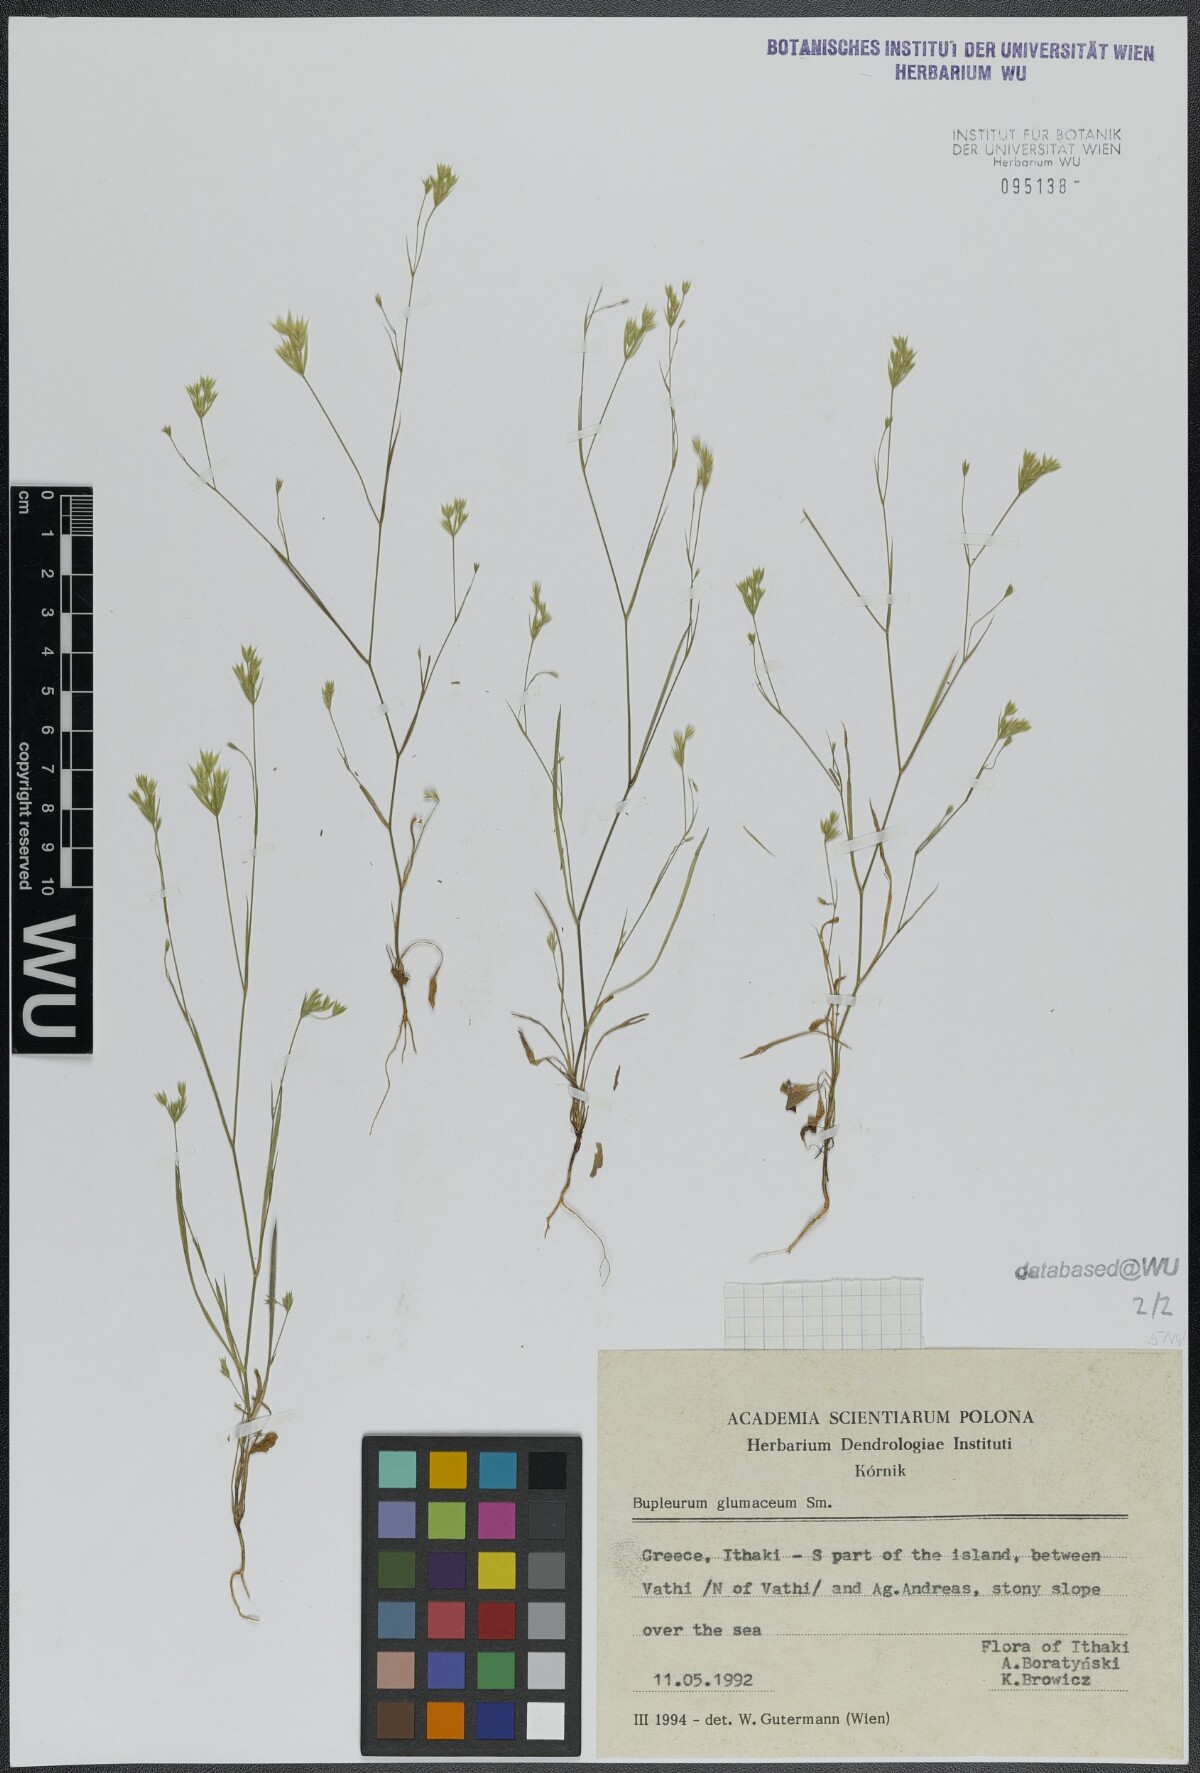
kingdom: Plantae
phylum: Tracheophyta
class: Magnoliopsida
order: Apiales
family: Apiaceae
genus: Bupleurum
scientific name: Bupleurum glumaceum
